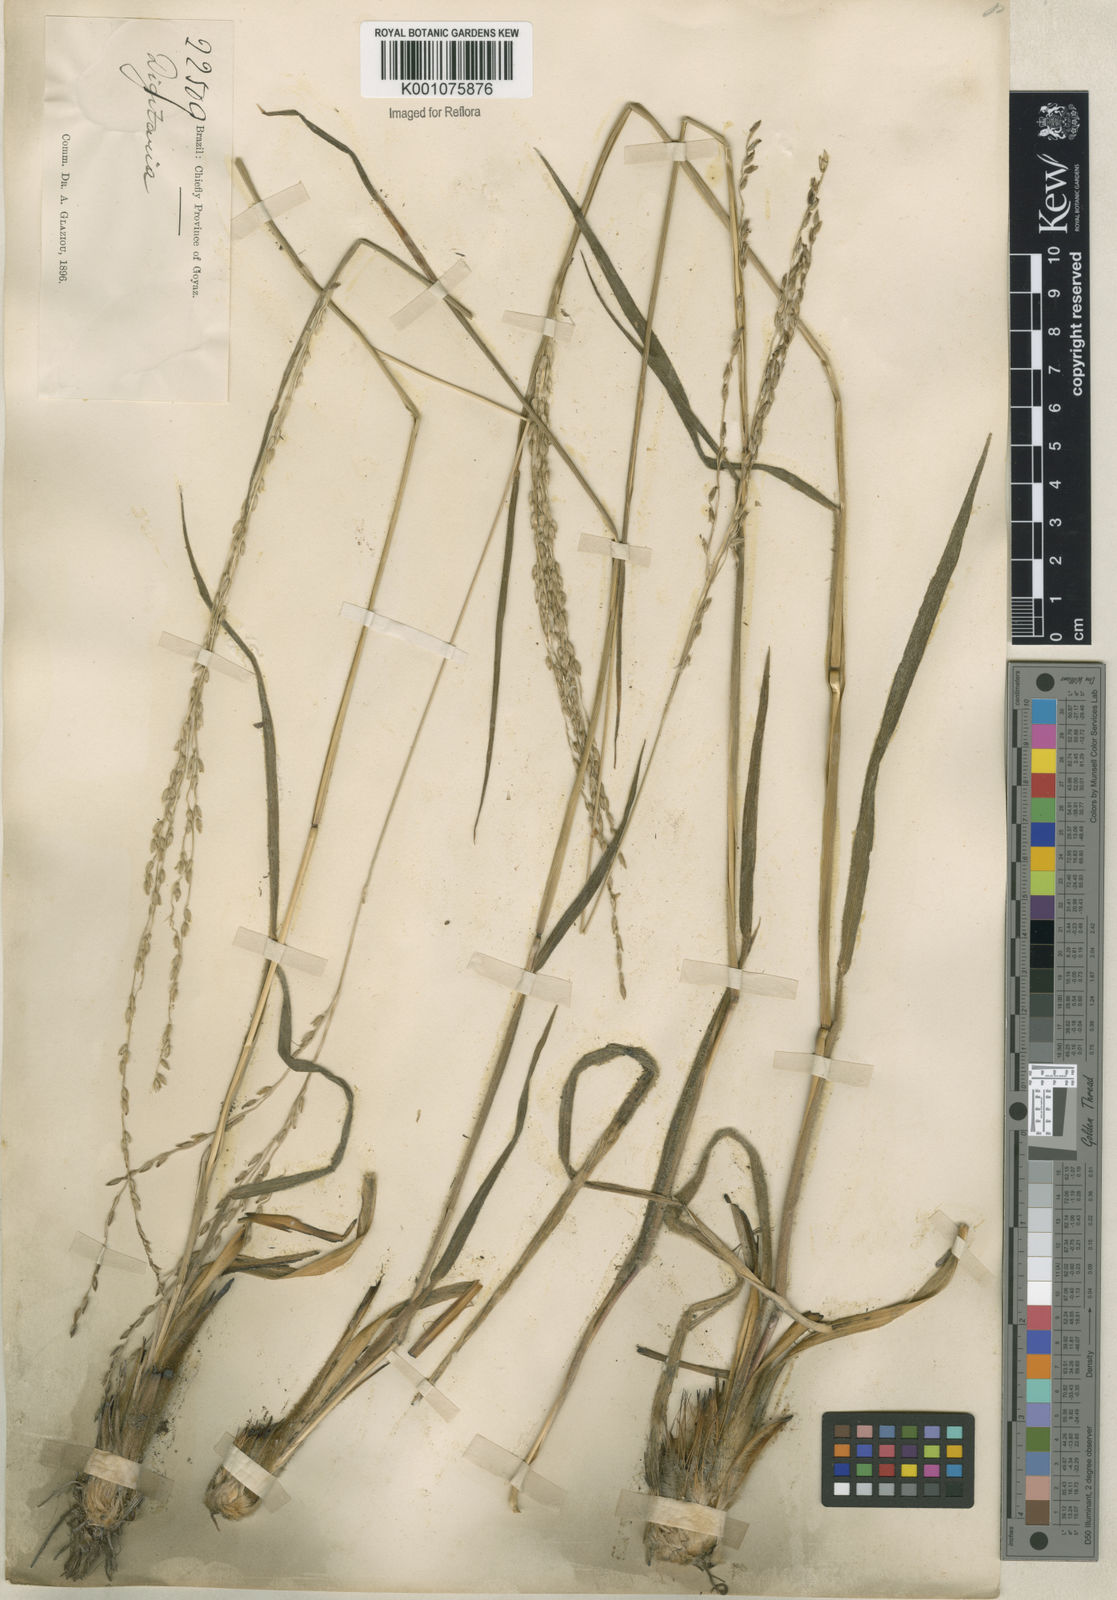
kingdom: Plantae
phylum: Tracheophyta
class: Liliopsida
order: Poales
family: Poaceae
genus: Digitaria
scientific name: Digitaria neesiana
